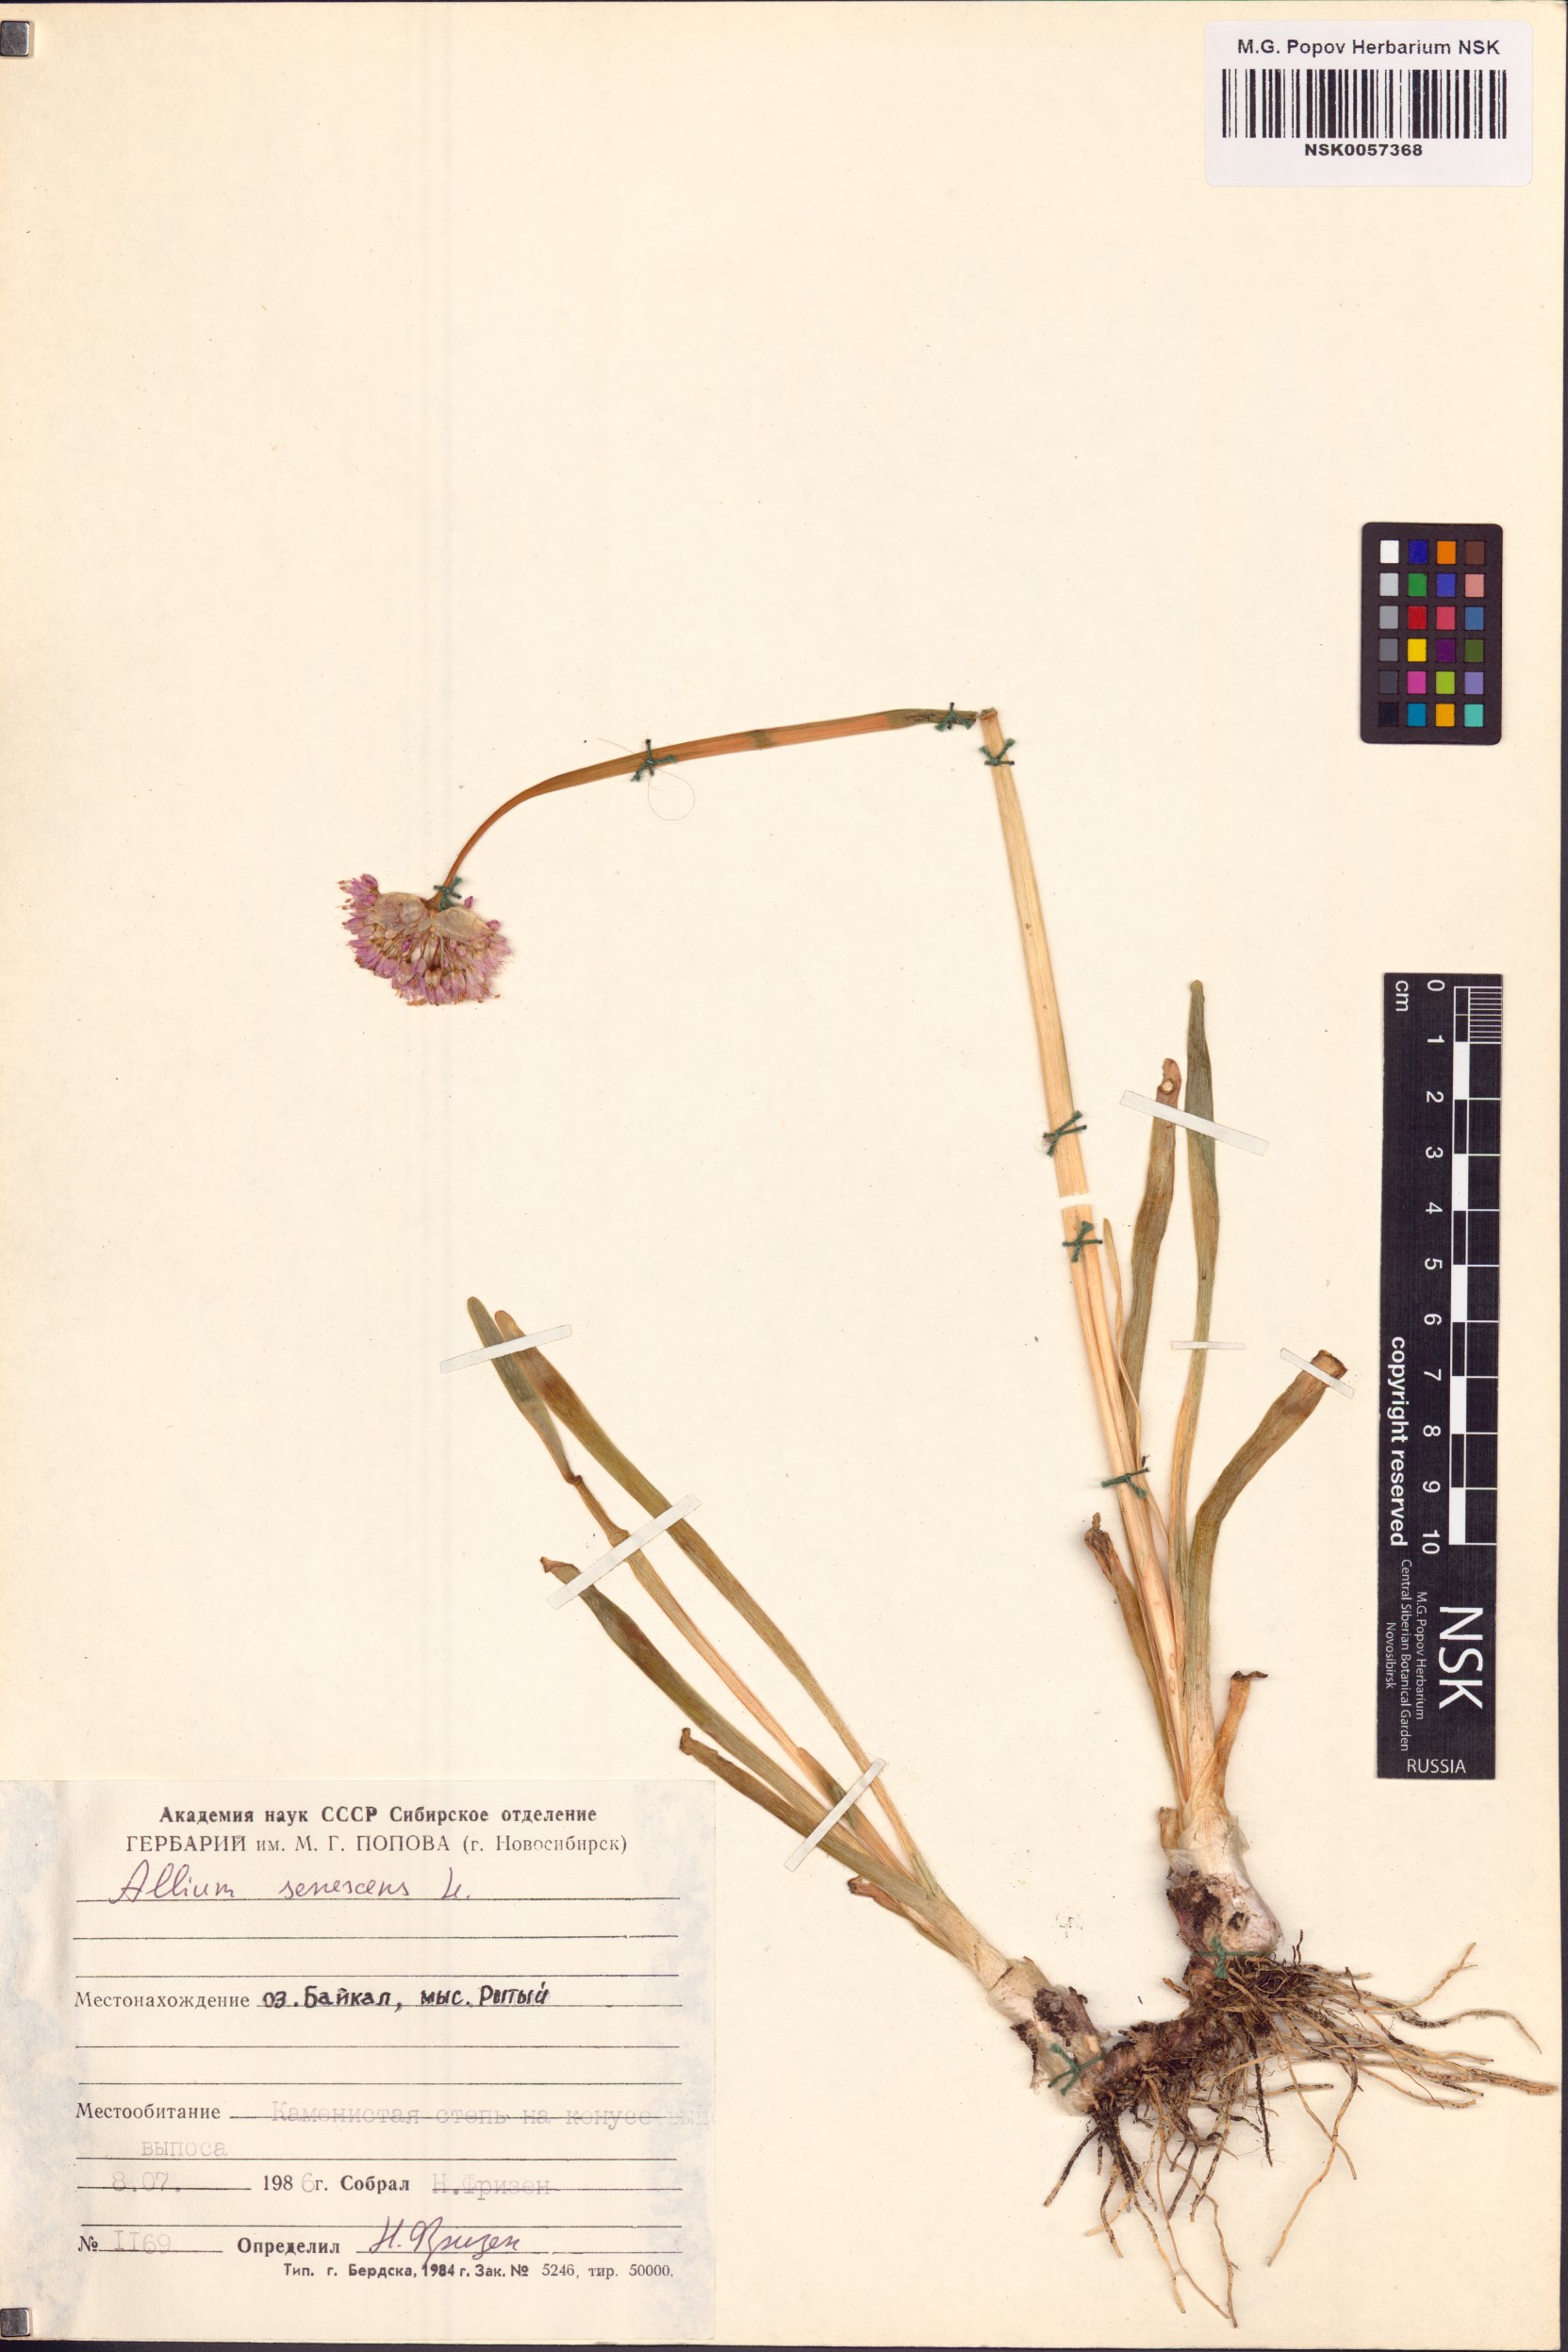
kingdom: Plantae
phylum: Tracheophyta
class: Liliopsida
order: Asparagales
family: Amaryllidaceae
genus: Allium
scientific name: Allium senescens
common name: German garlic
